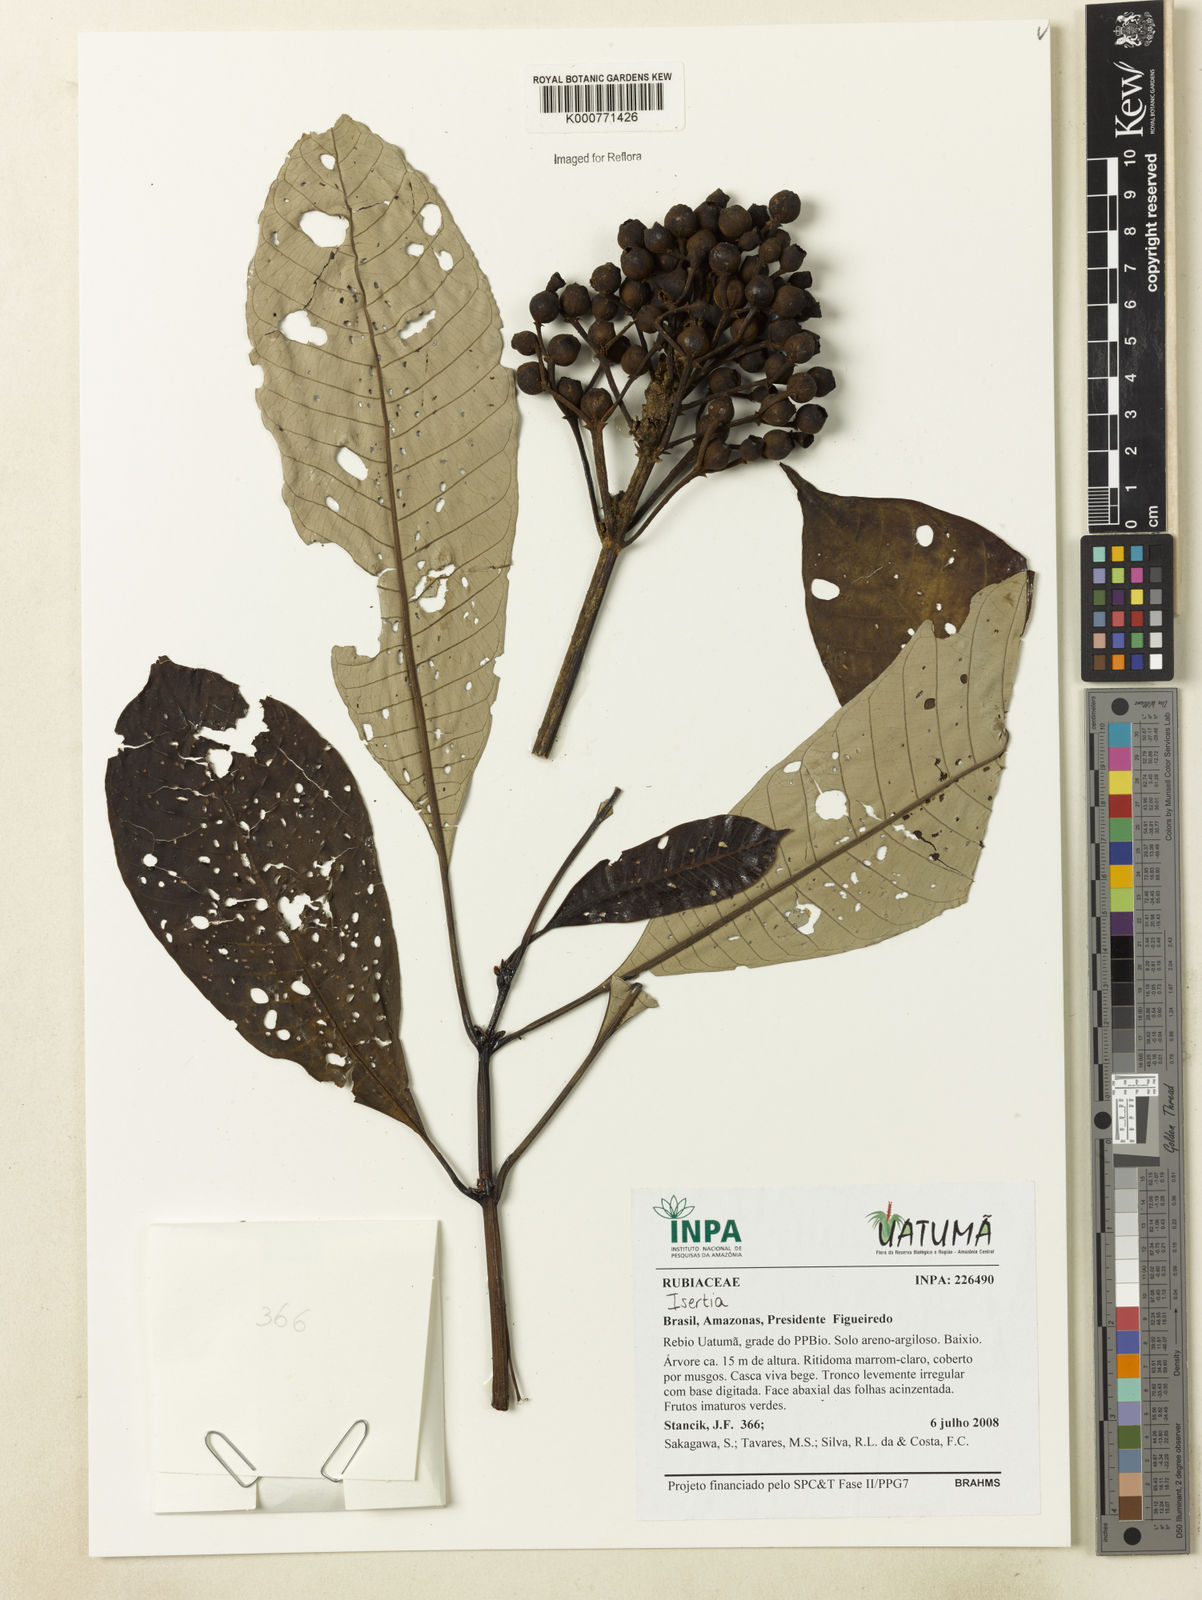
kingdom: Plantae
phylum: Tracheophyta
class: Magnoliopsida
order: Gentianales
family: Rubiaceae
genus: Isertia
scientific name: Isertia
